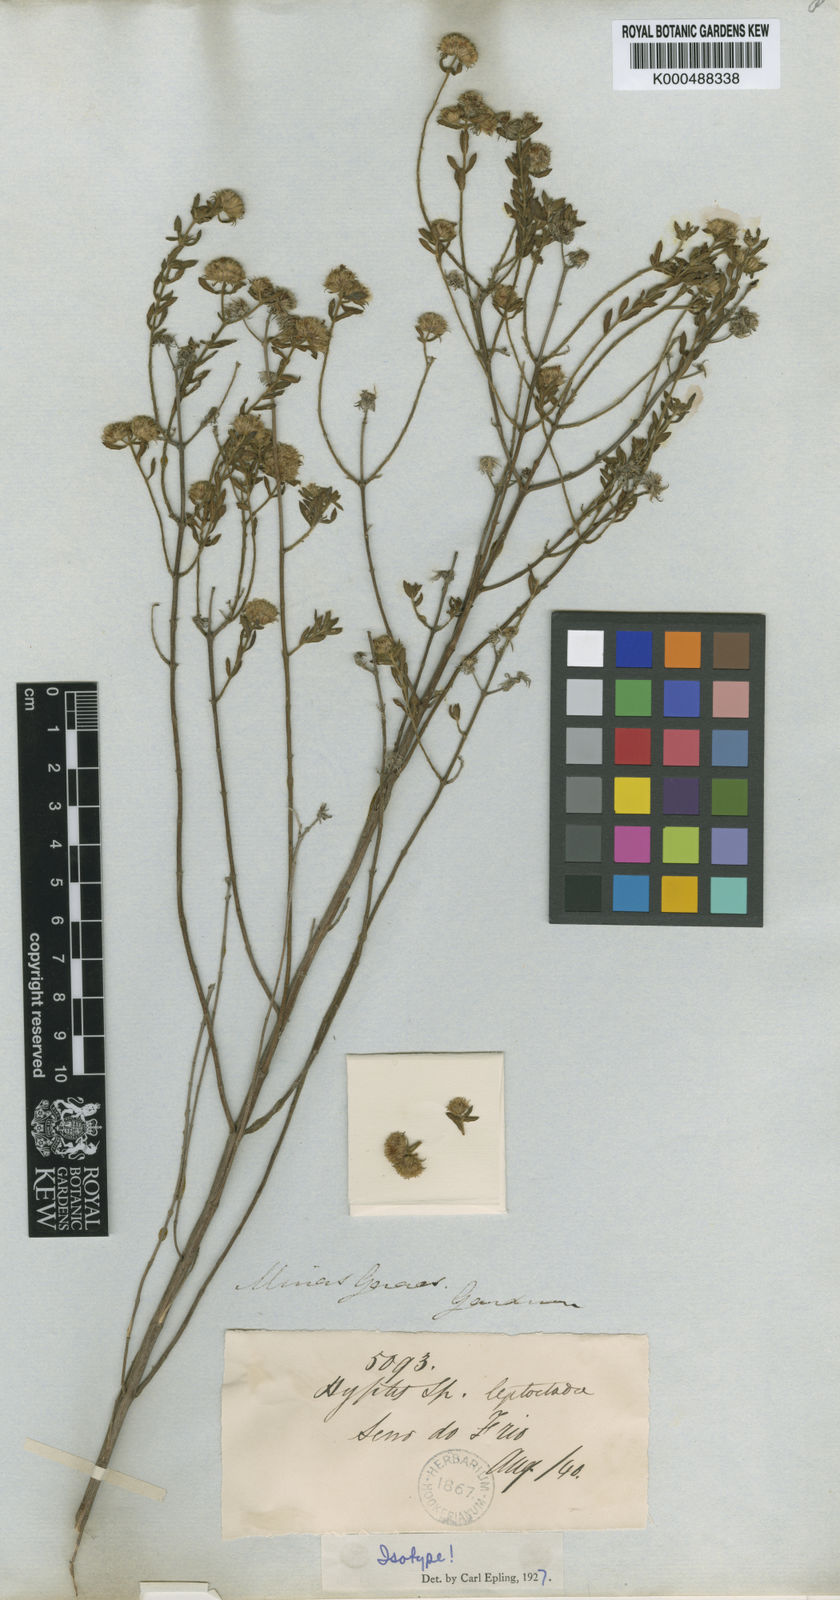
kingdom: Plantae
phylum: Tracheophyta
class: Magnoliopsida
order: Lamiales
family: Lamiaceae
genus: Hyptis
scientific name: Hyptis leptoclada
